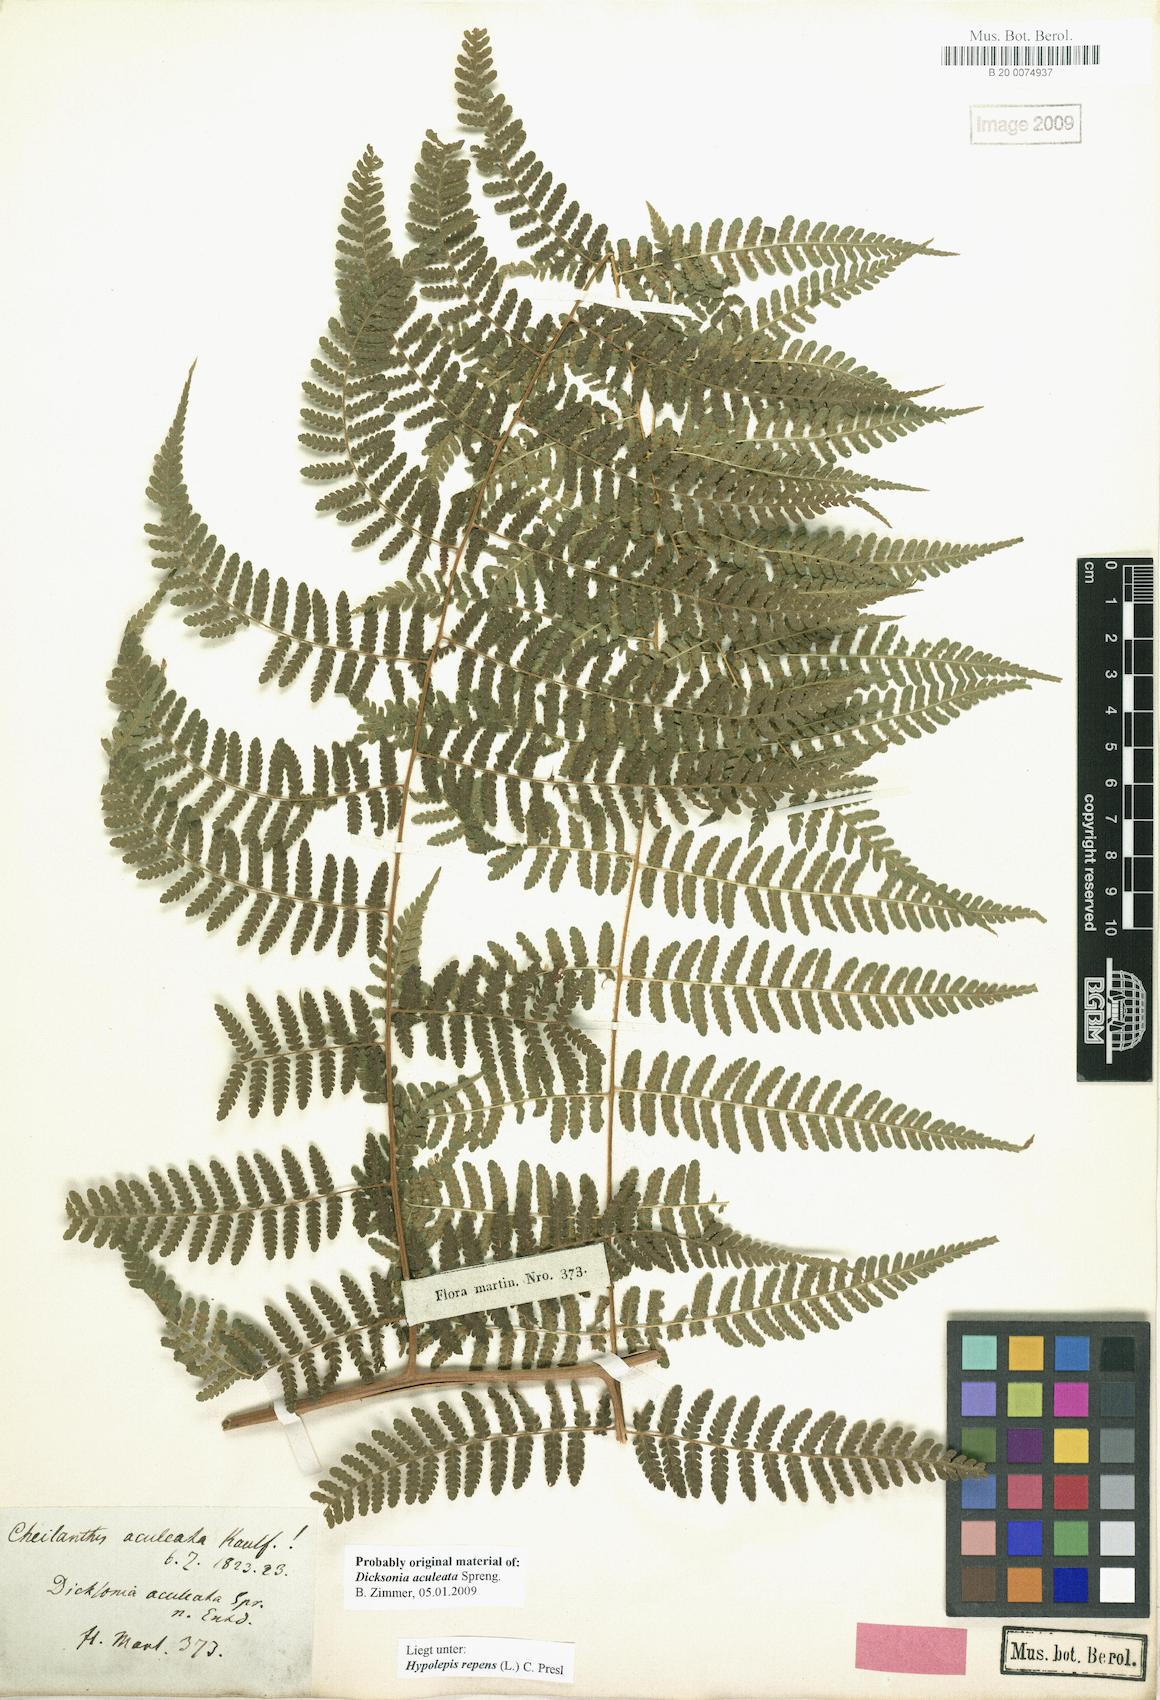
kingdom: Plantae
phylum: Tracheophyta
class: Polypodiopsida
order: Polypodiales
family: Dennstaedtiaceae
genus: Hypolepis
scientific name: Hypolepis repens
